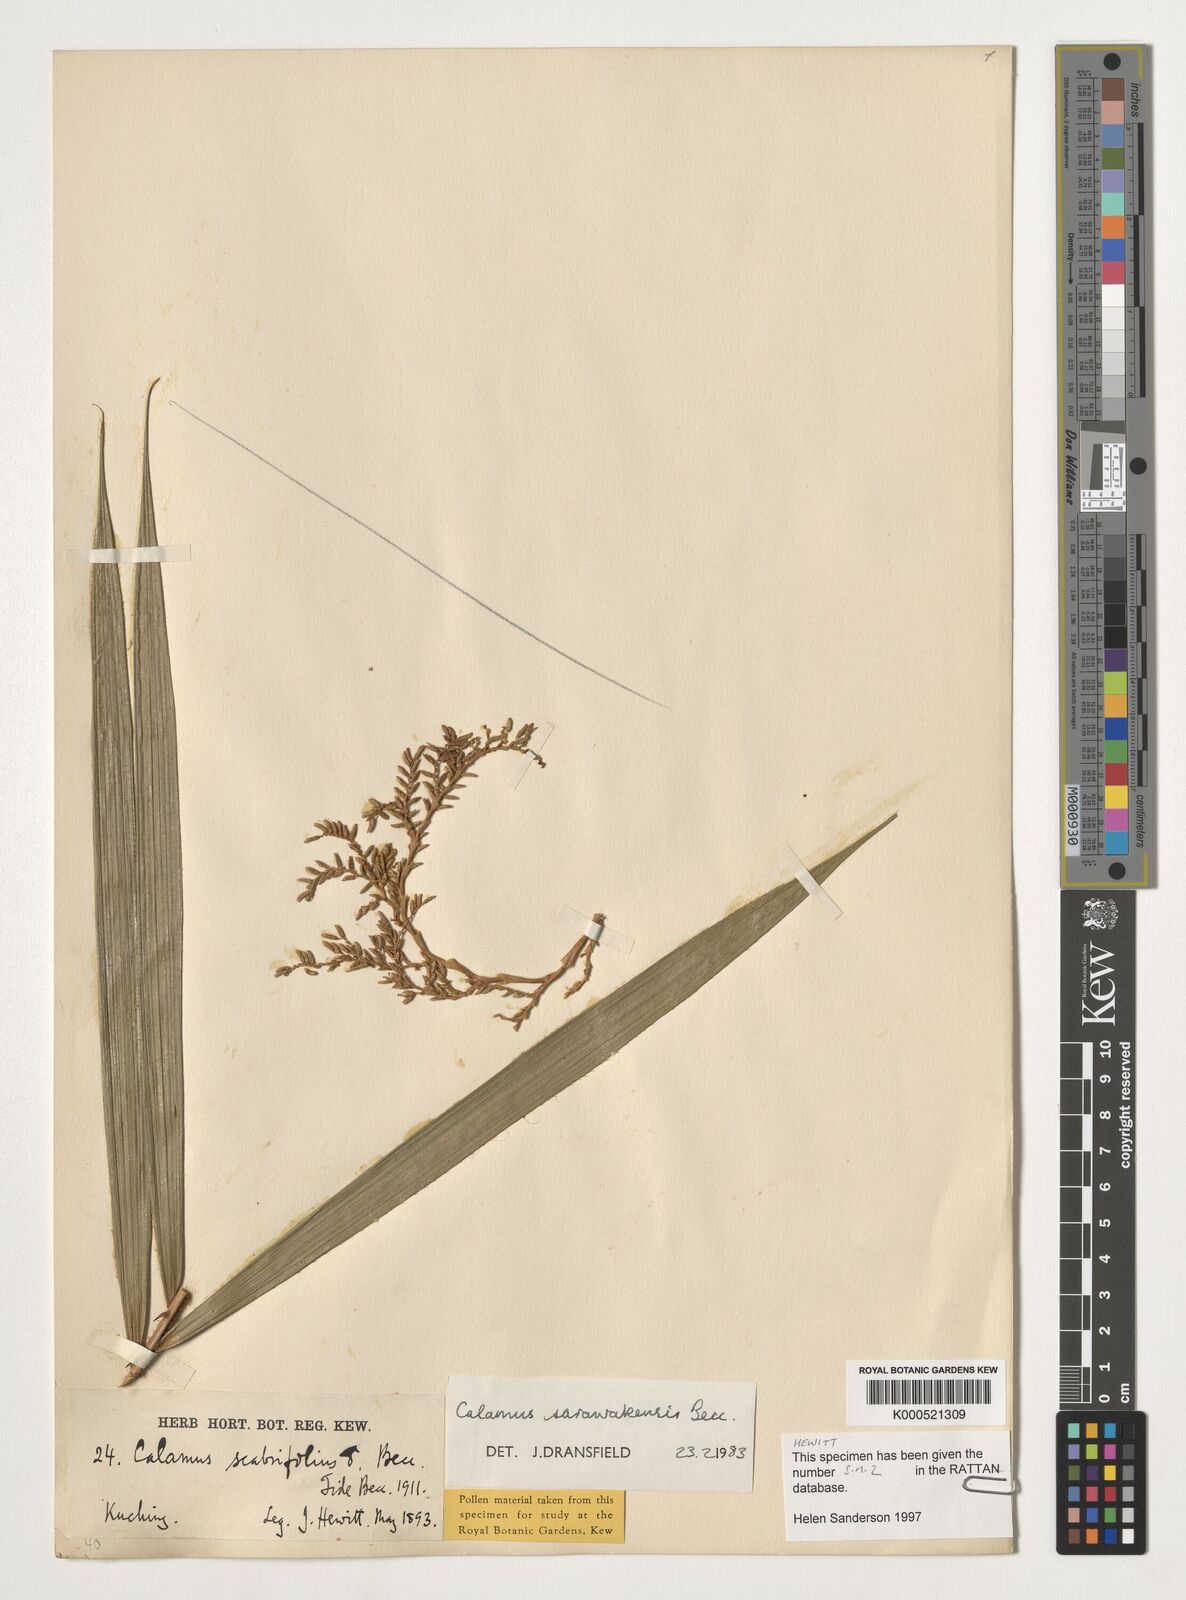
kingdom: Plantae
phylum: Tracheophyta
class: Liliopsida
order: Arecales
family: Arecaceae
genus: Calamus
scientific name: Calamus sarawakensis
